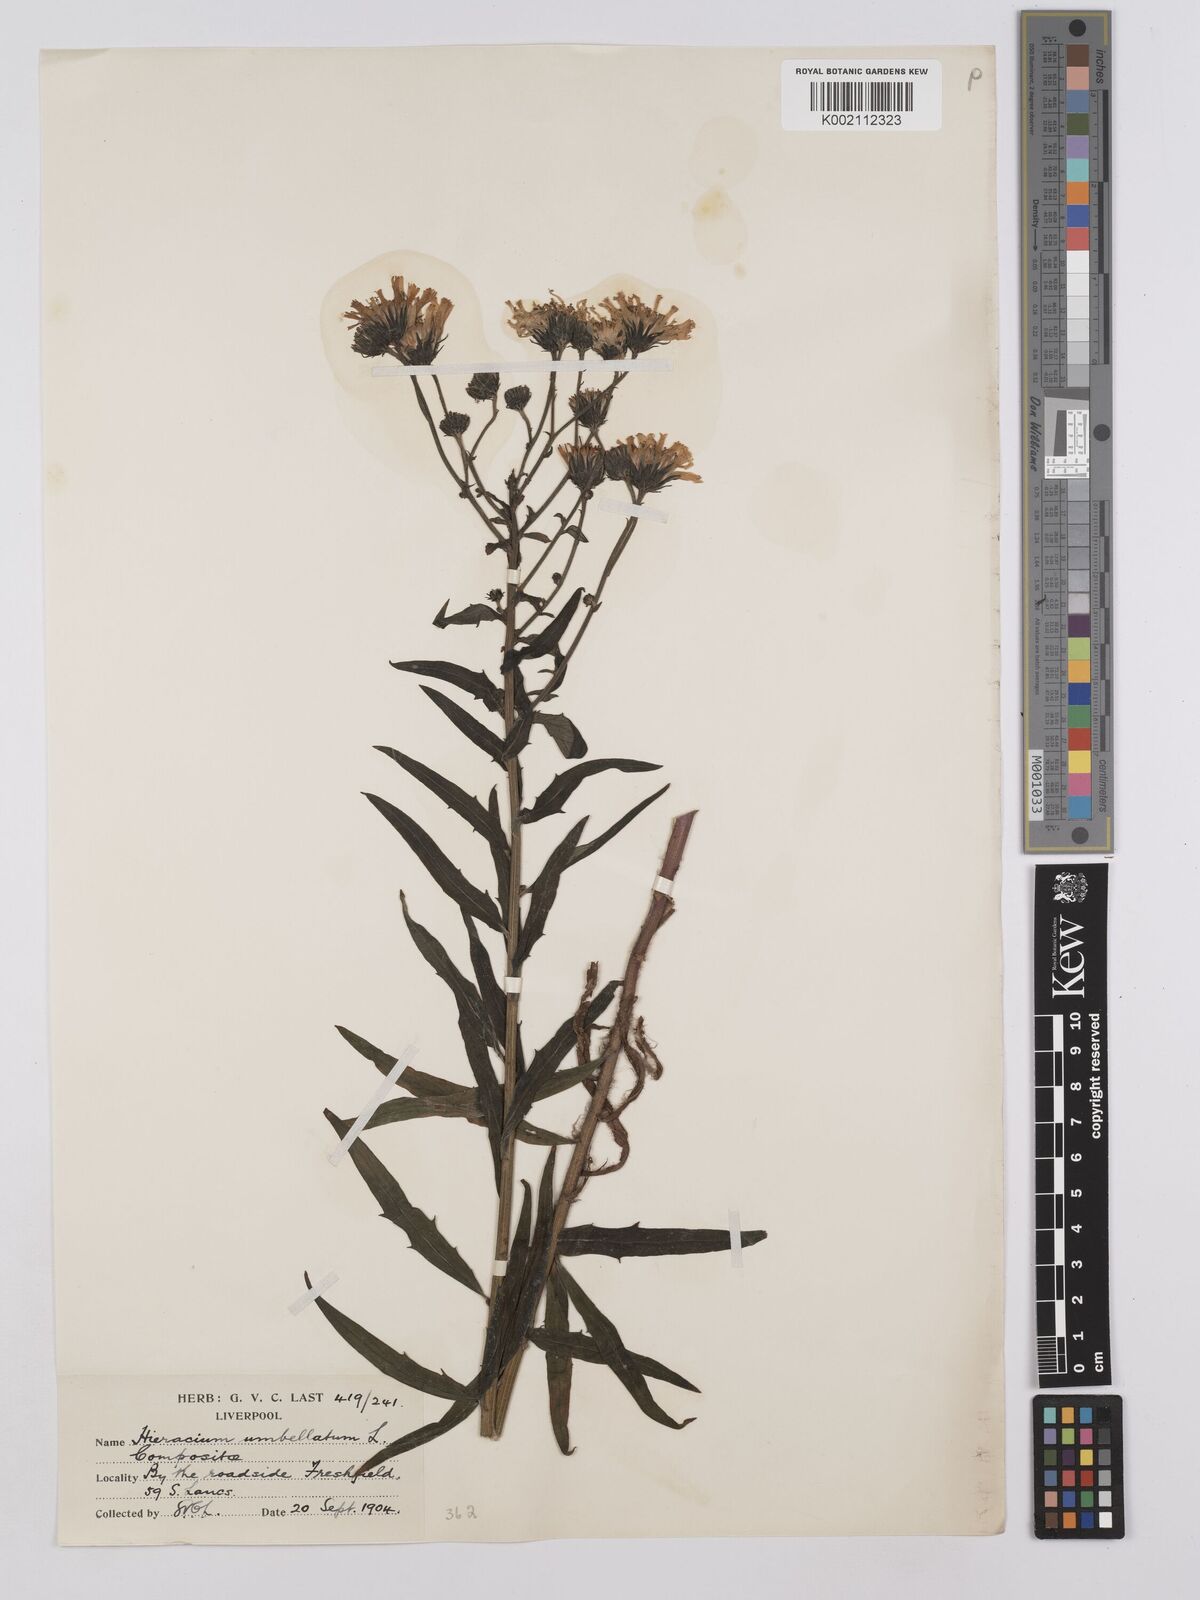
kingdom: Plantae
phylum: Tracheophyta
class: Magnoliopsida
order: Asterales
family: Asteraceae
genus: Hieracium
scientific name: Hieracium umbellatum
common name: Northern hawkweed
